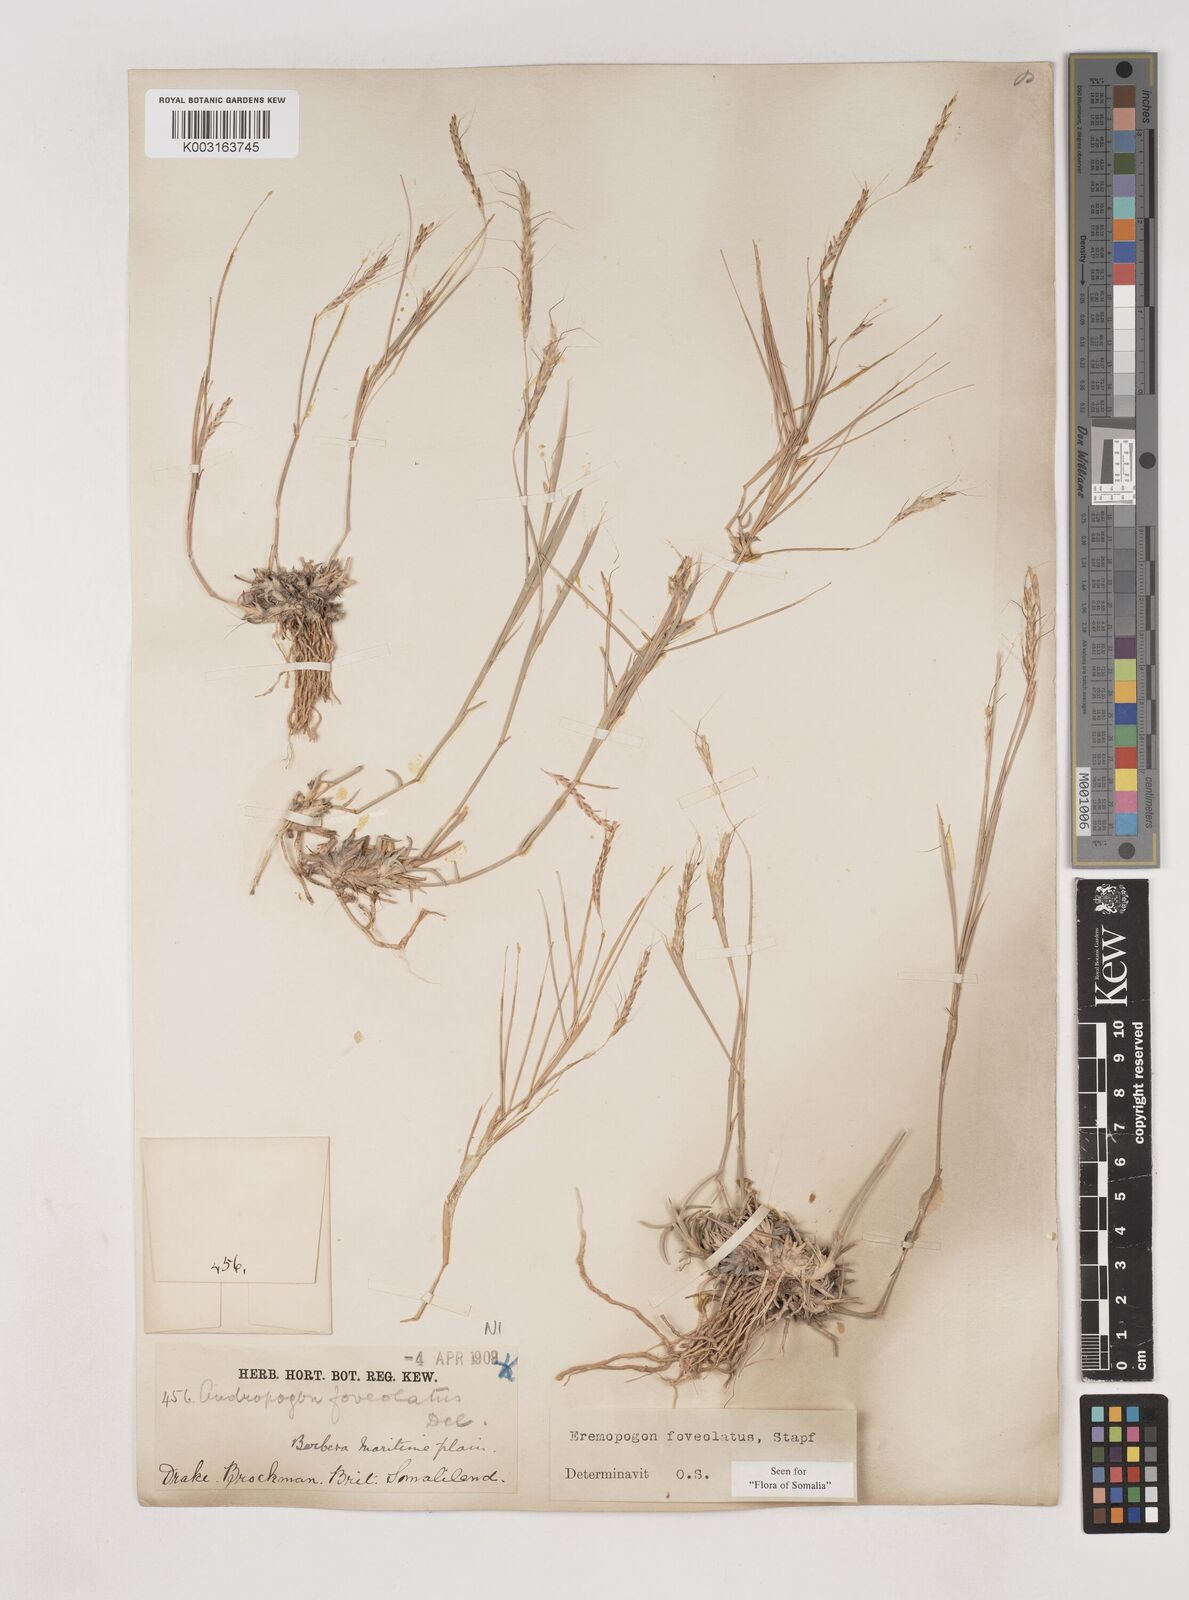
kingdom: Plantae
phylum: Tracheophyta
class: Liliopsida
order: Poales
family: Poaceae
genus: Dichanthium
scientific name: Dichanthium foveolatum
